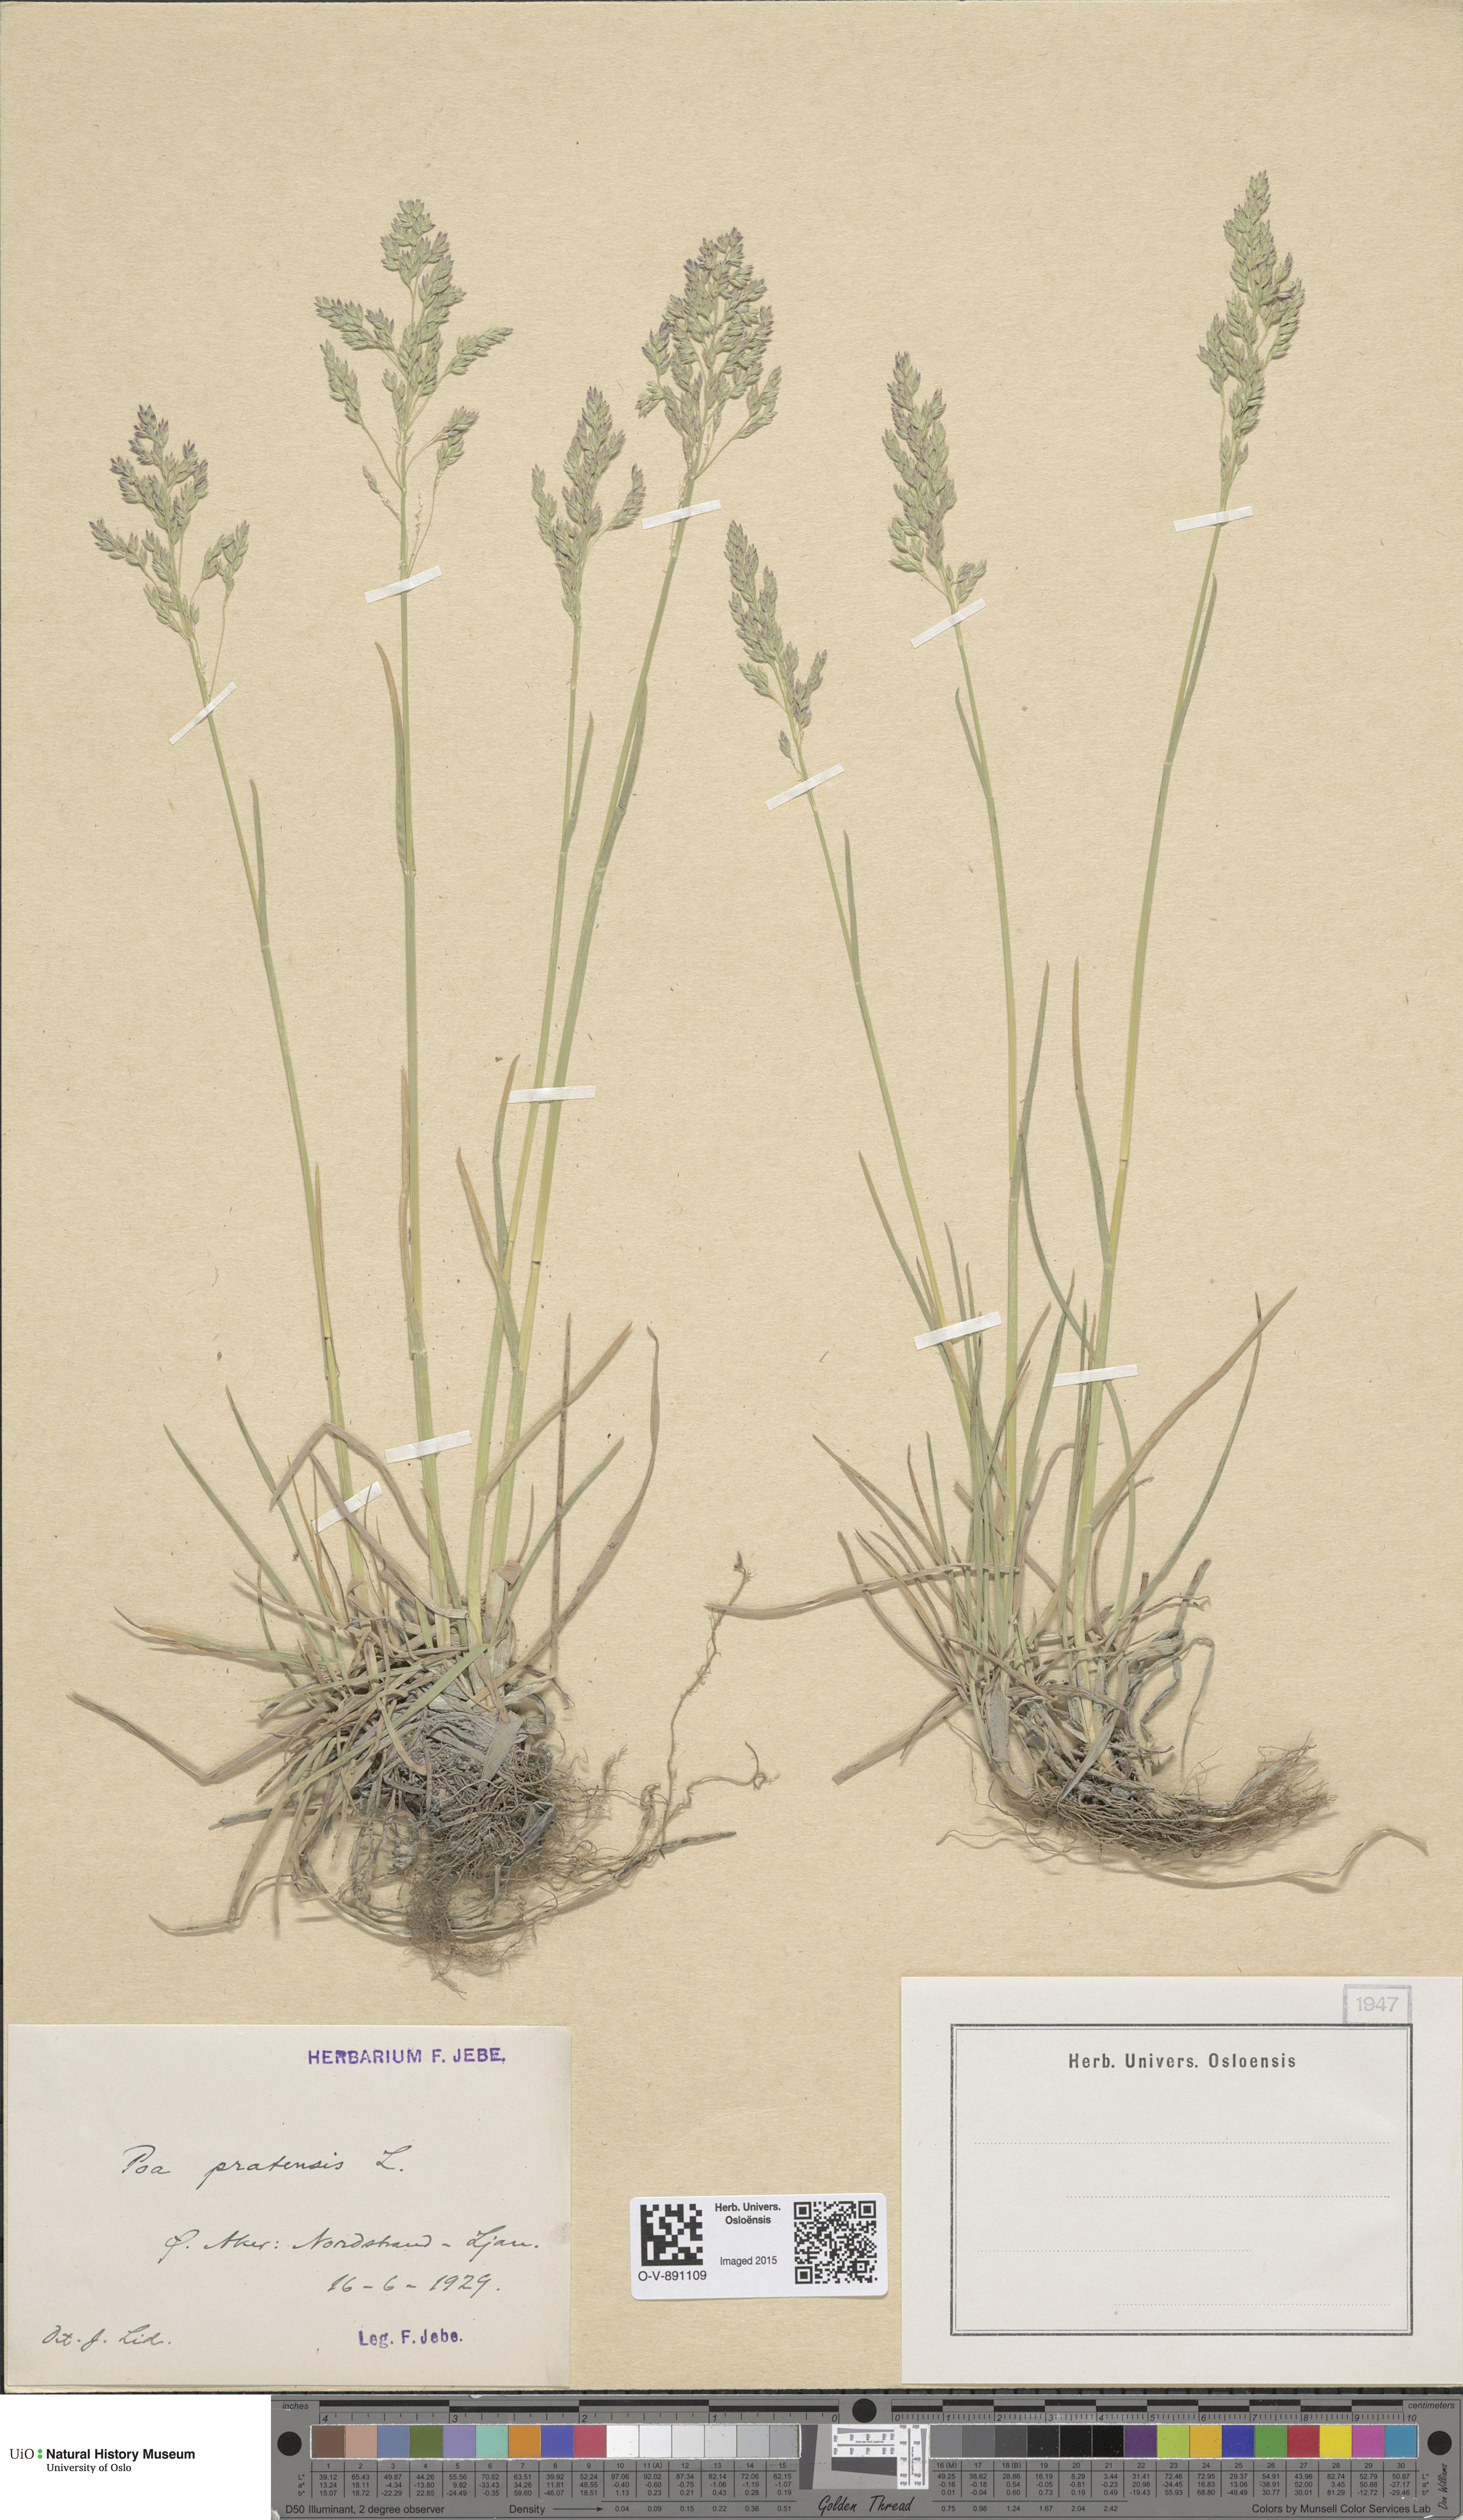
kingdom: Plantae
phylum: Tracheophyta
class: Liliopsida
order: Poales
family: Poaceae
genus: Poa
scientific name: Poa pratensis
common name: Kentucky bluegrass
